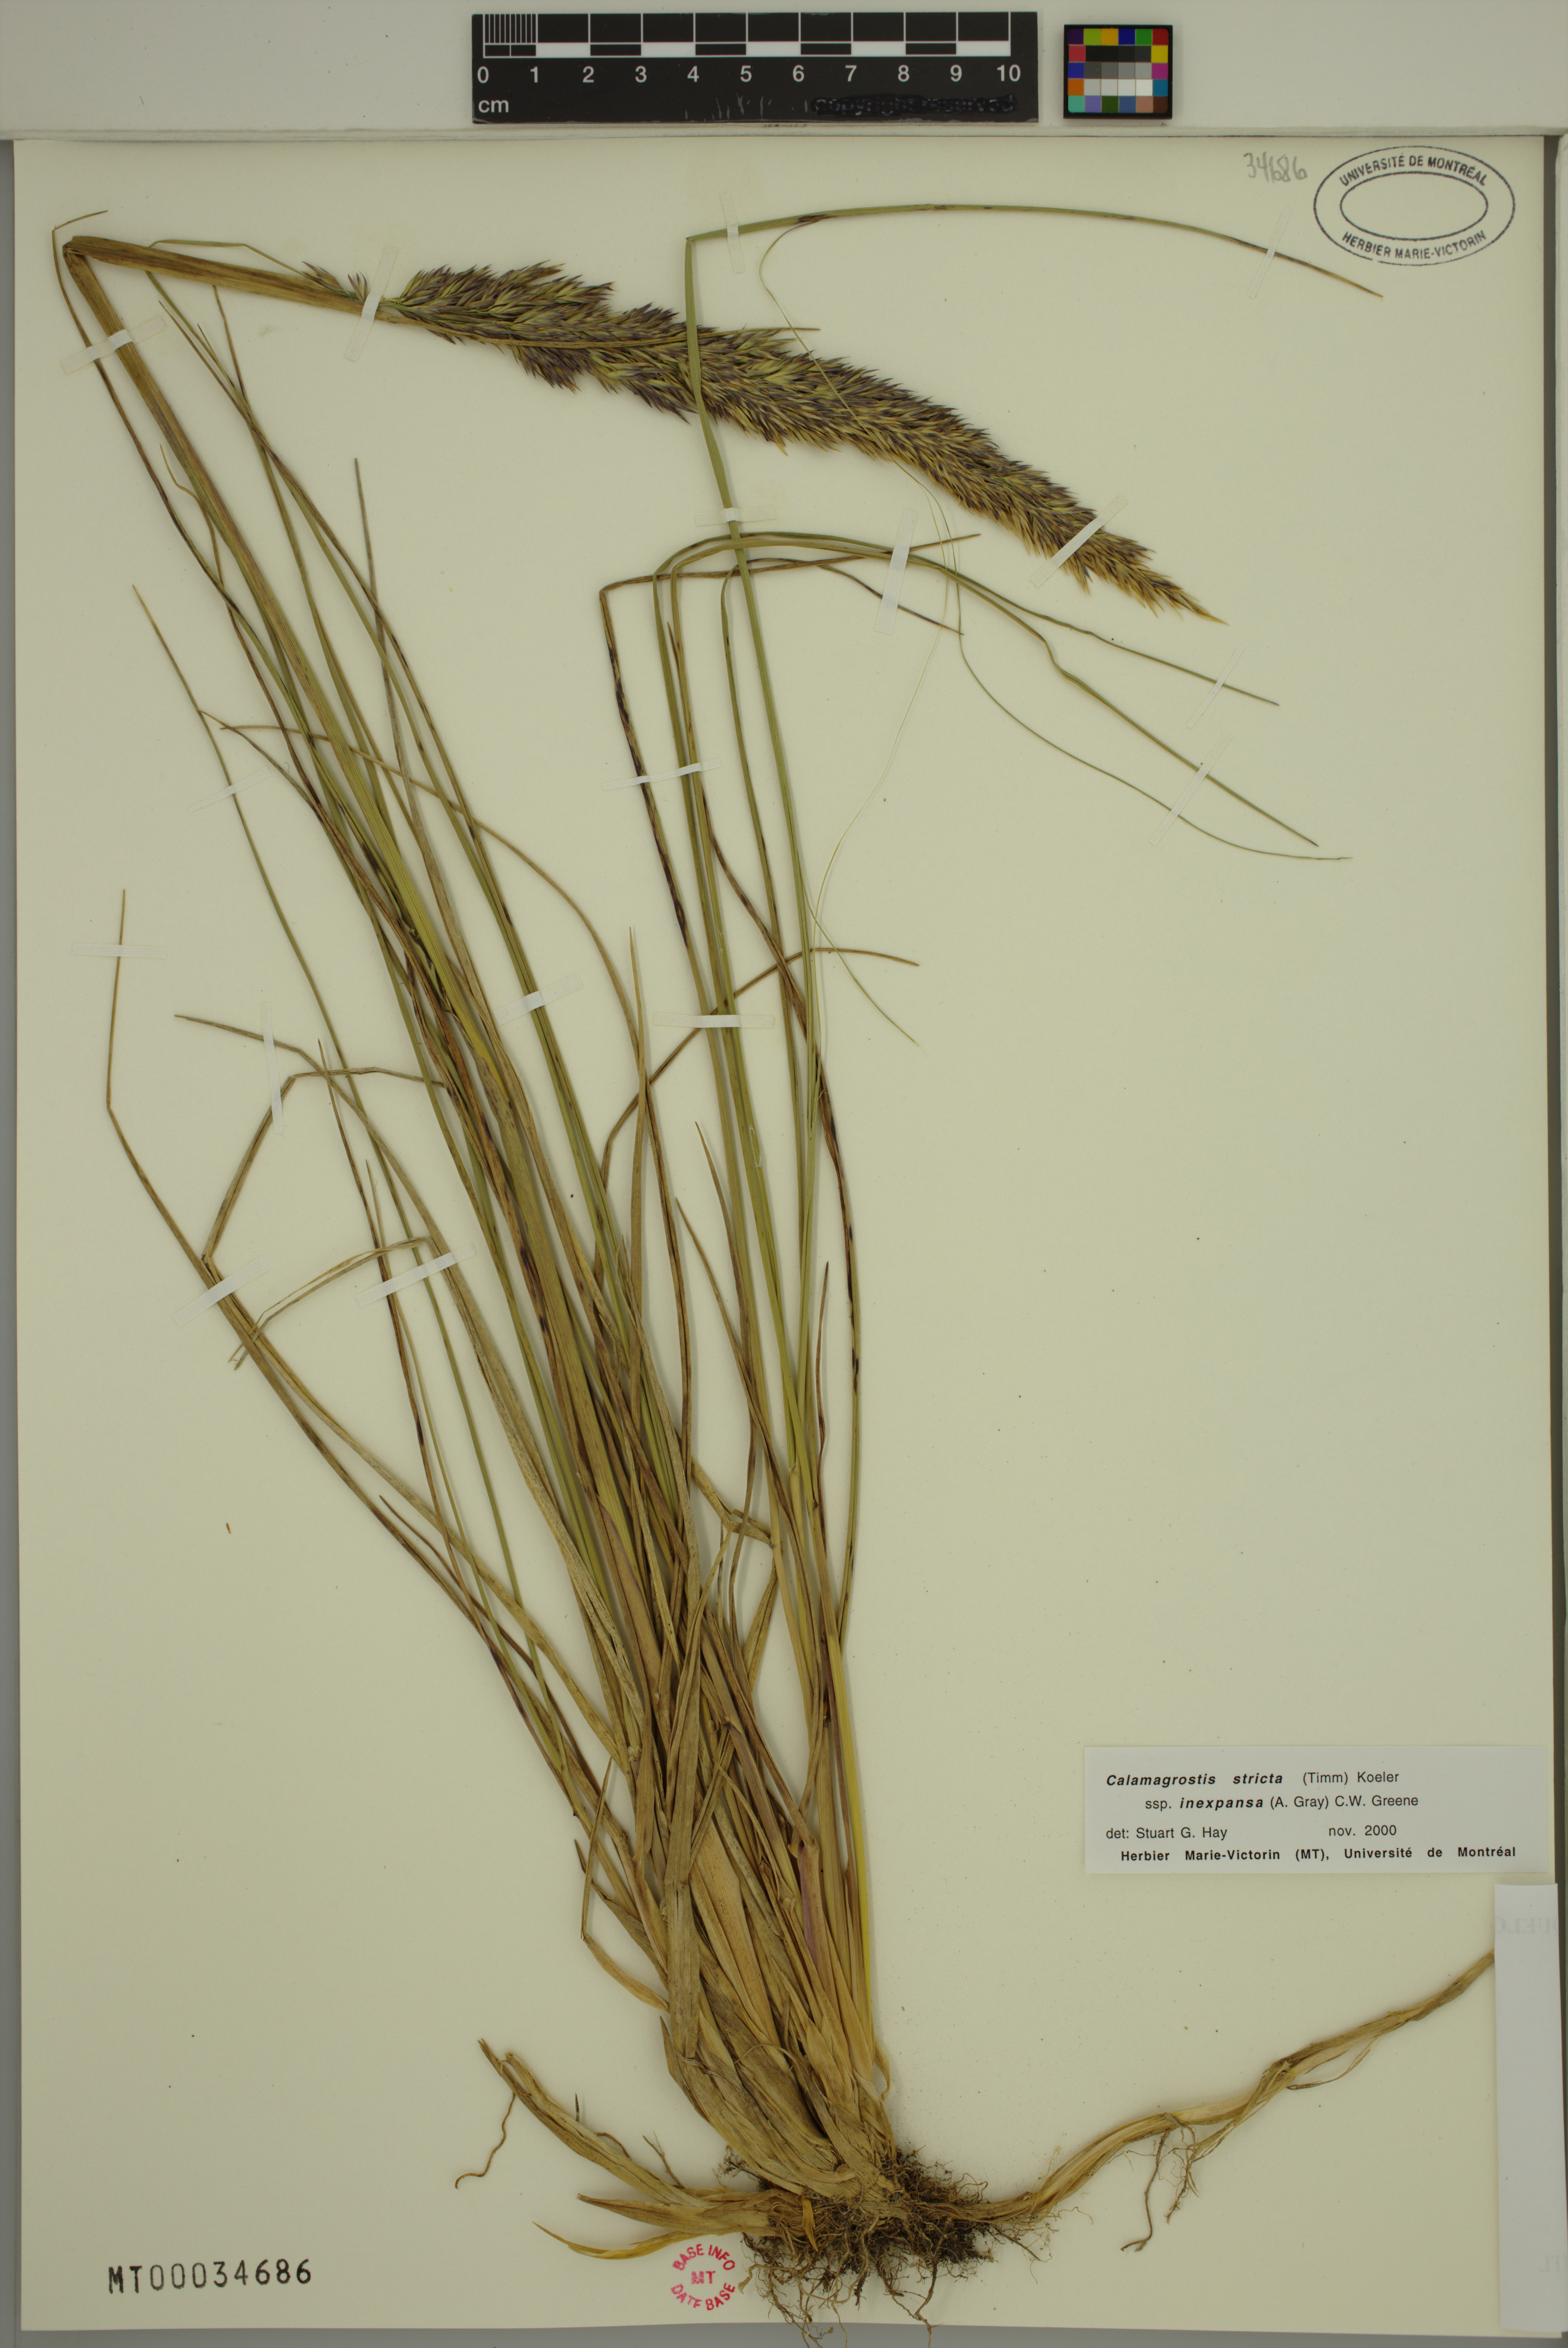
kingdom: Plantae
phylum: Tracheophyta
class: Liliopsida
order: Poales
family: Poaceae
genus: Calamagrostis
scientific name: Calamagrostis inexpansa
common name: Northern reedgrass
